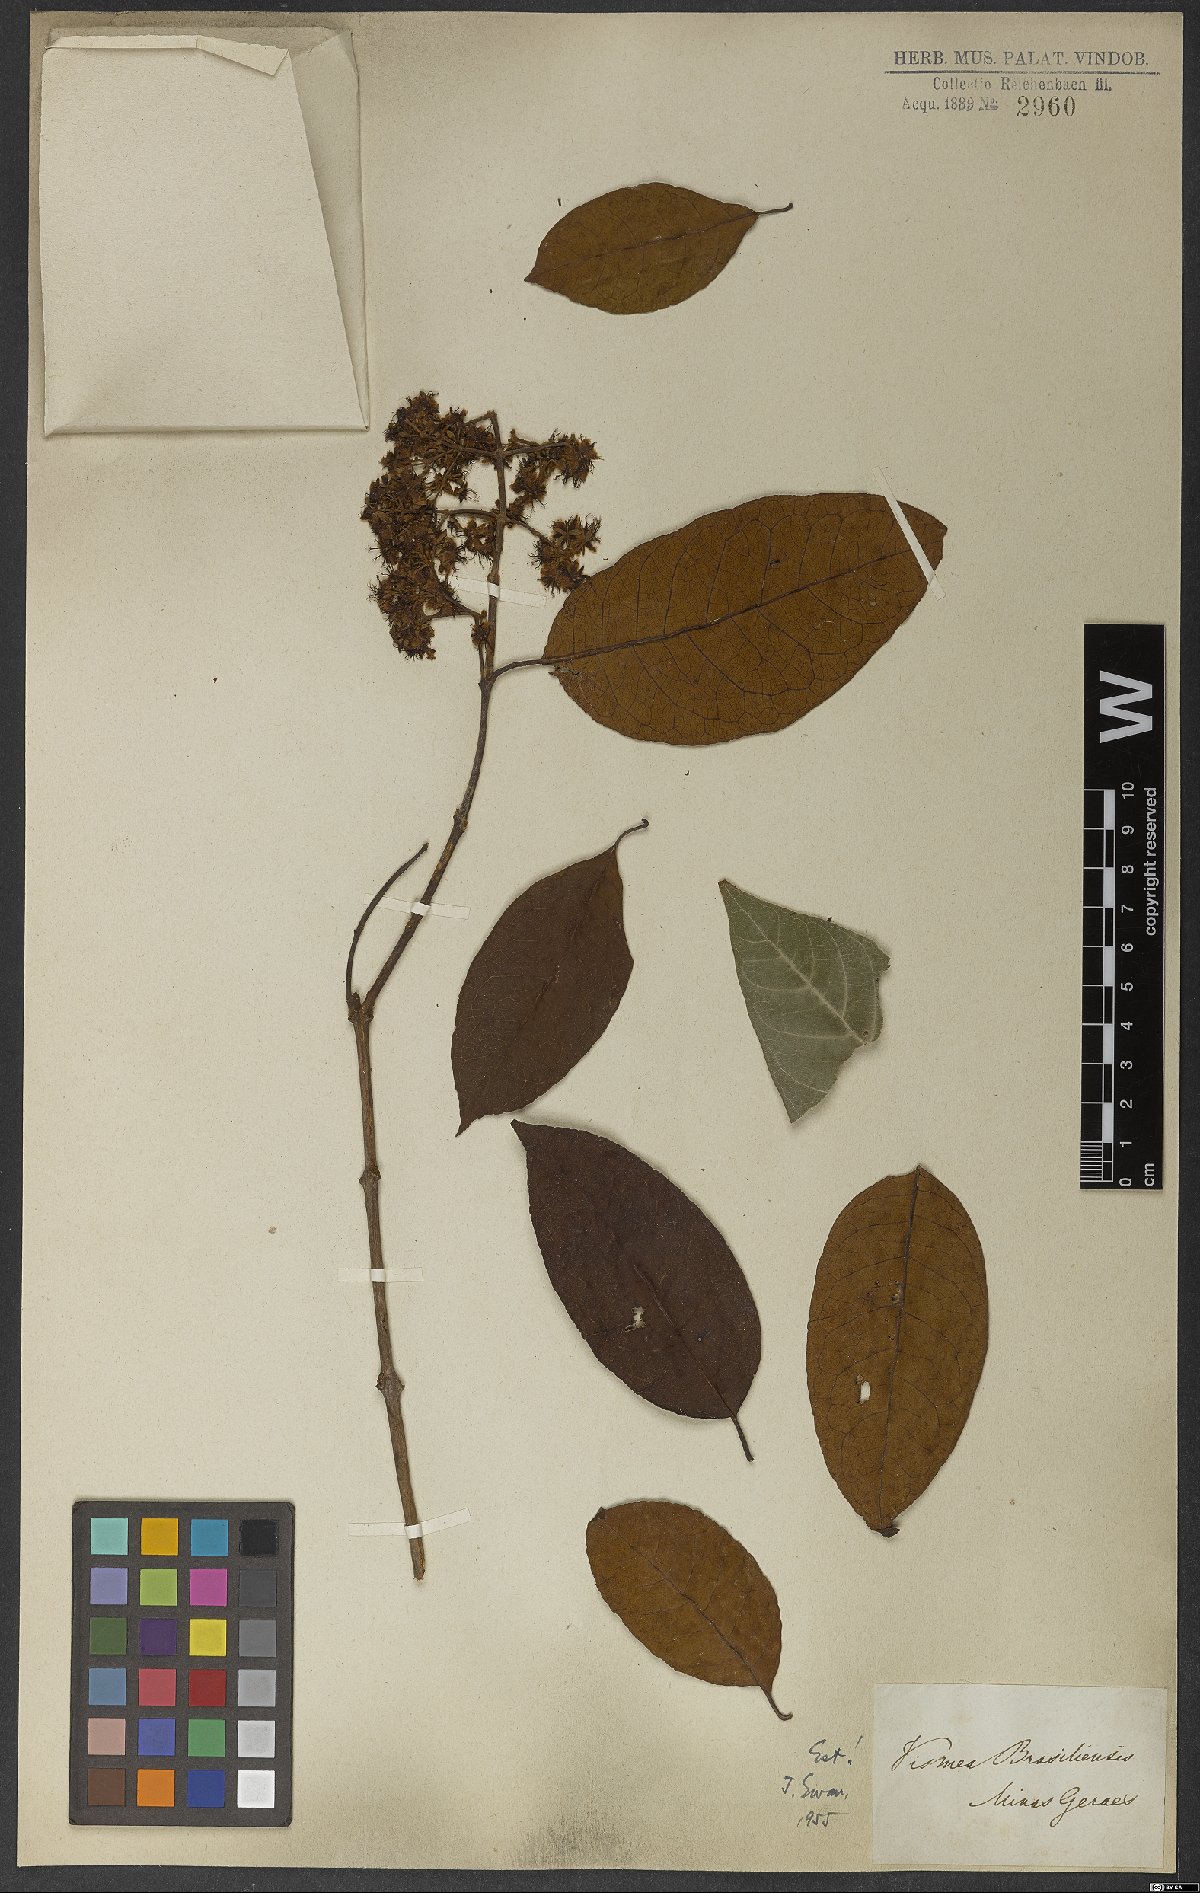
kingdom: Plantae
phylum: Tracheophyta
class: Magnoliopsida
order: Malpighiales
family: Hypericaceae
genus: Vismia
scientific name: Vismia brasiliensis
